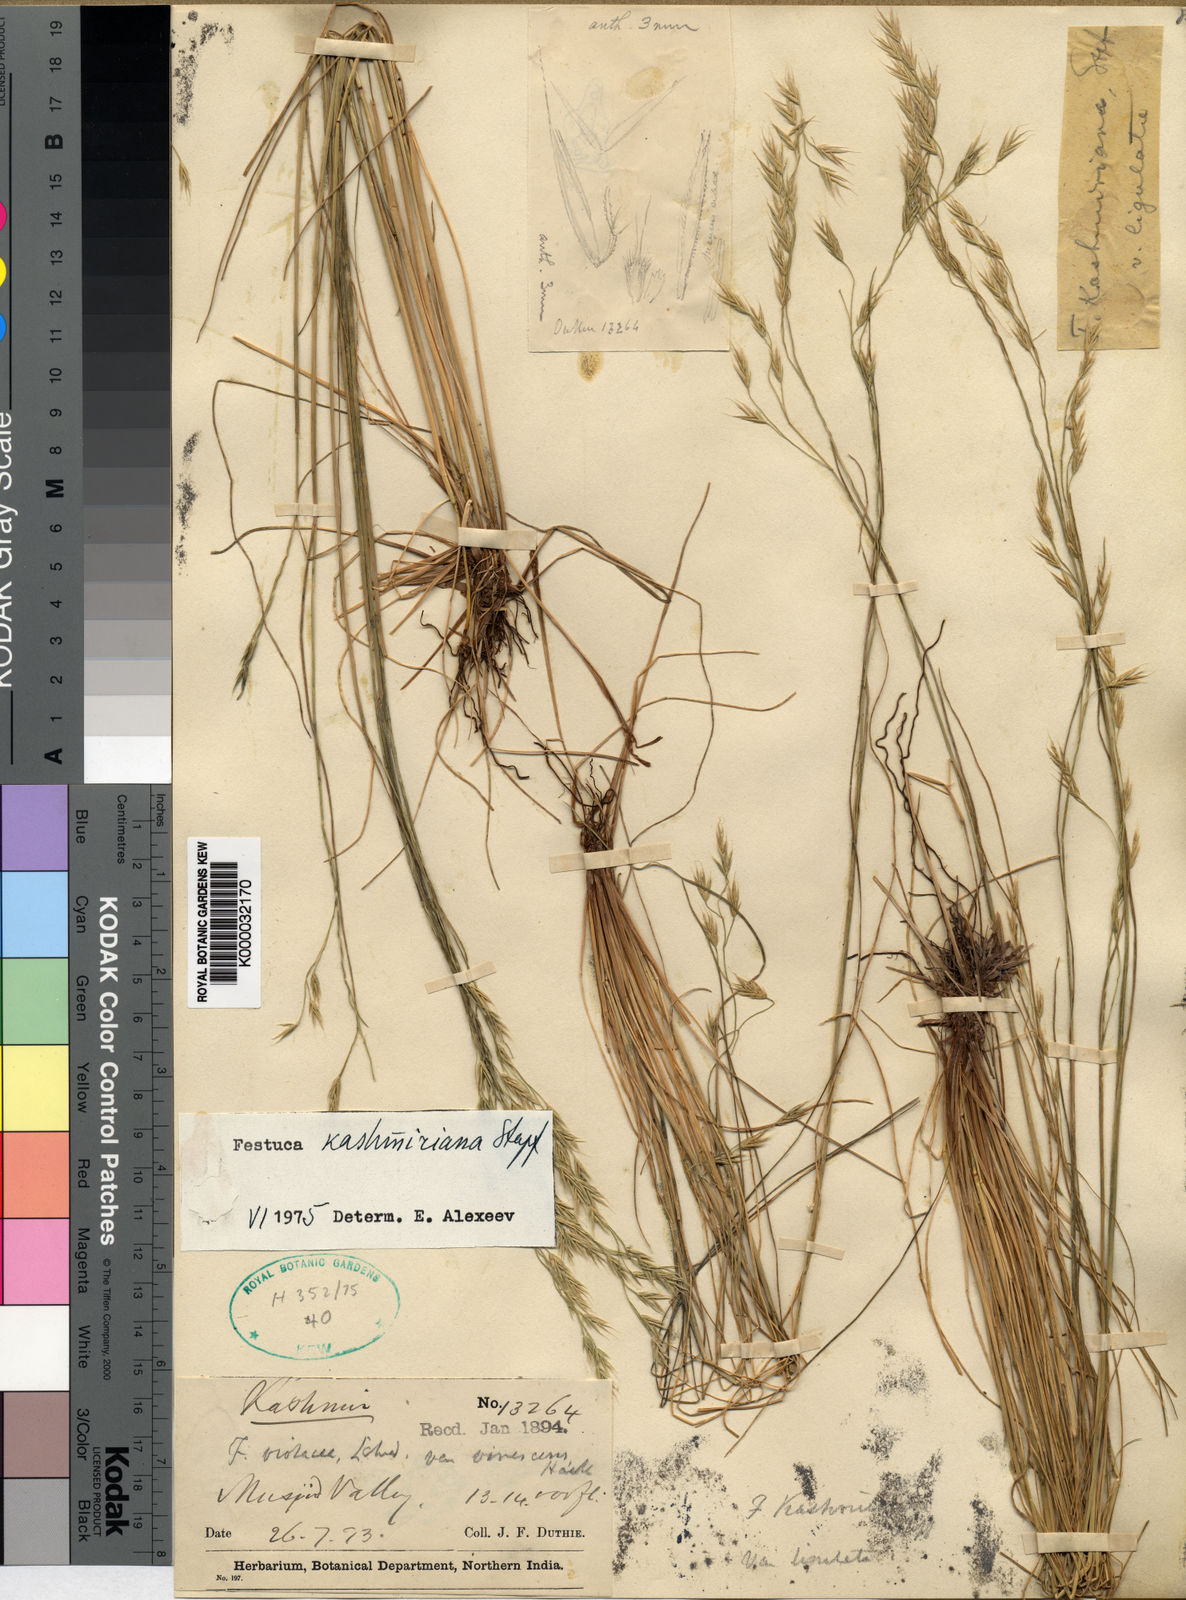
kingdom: Plantae
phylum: Tracheophyta
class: Liliopsida
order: Poales
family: Poaceae
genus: Festuca
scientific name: Festuca kashmiriana
